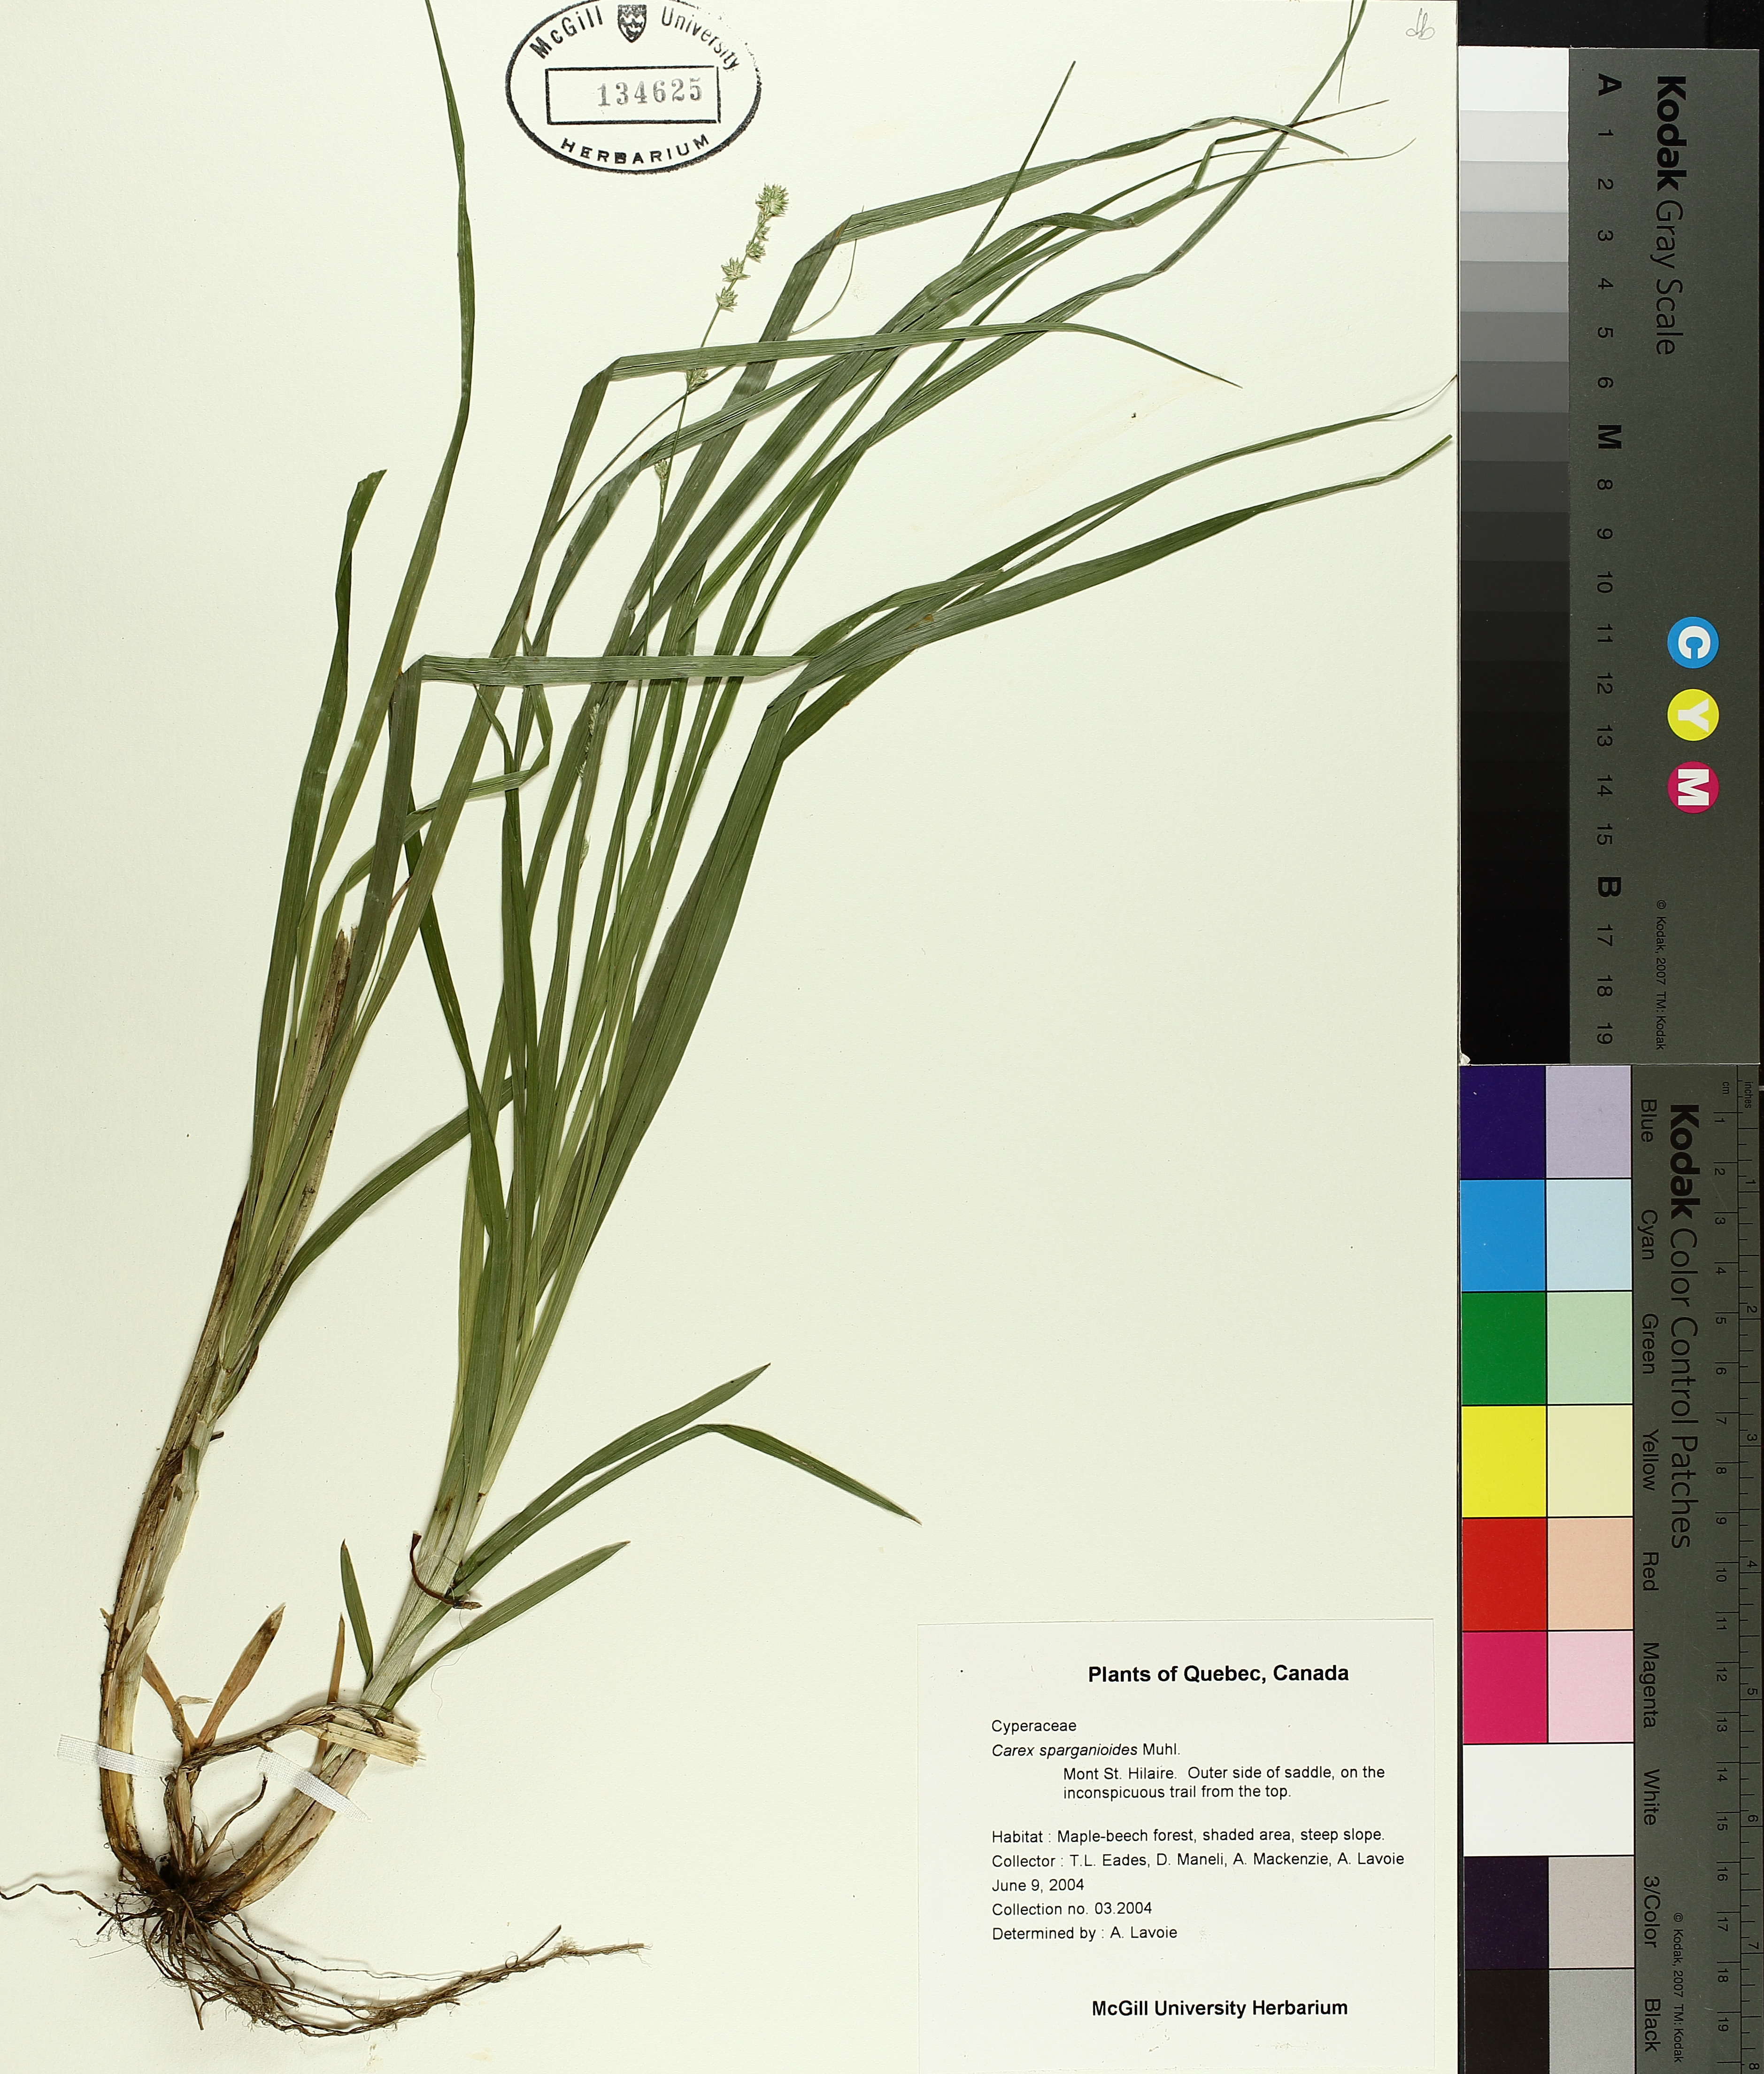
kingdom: Plantae
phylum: Tracheophyta
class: Liliopsida
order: Poales
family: Cyperaceae
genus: Carex
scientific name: Carex sparganioides
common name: Burreed sedge
